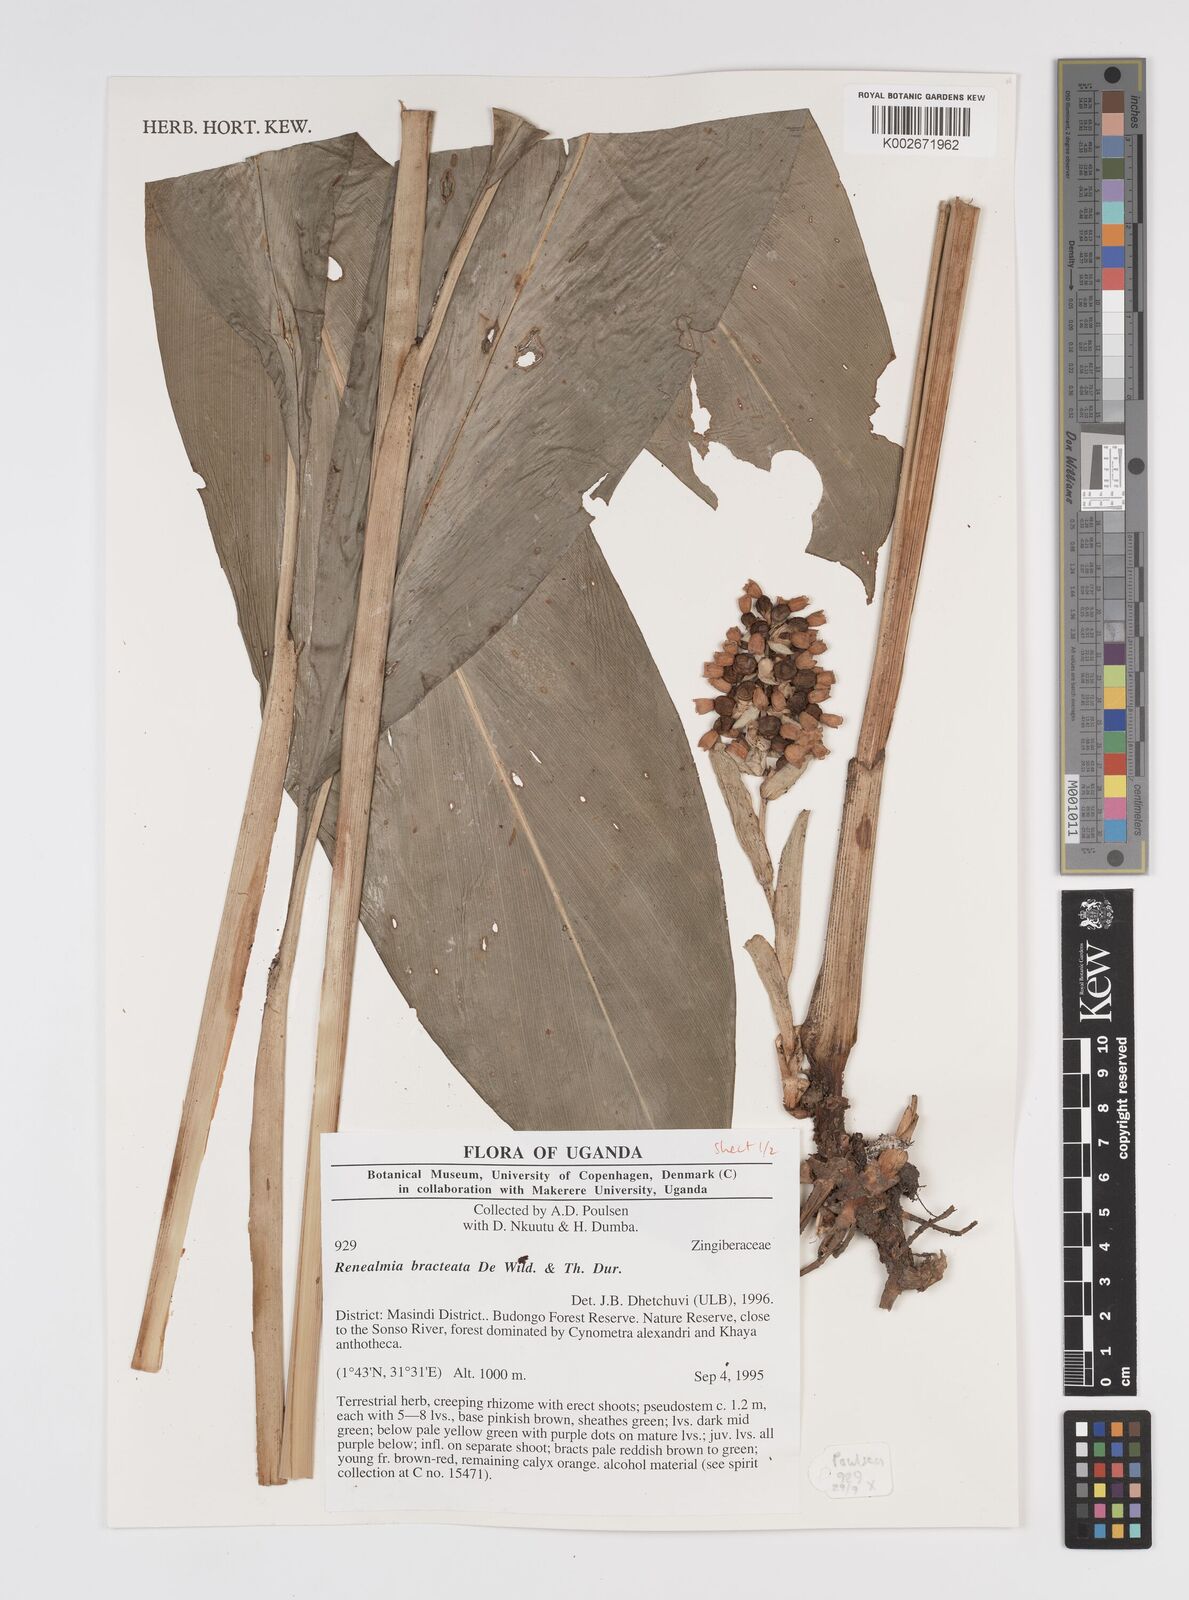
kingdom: Plantae
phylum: Tracheophyta
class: Liliopsida
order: Zingiberales
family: Zingiberaceae
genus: Renealmia
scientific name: Renealmia bracteata
